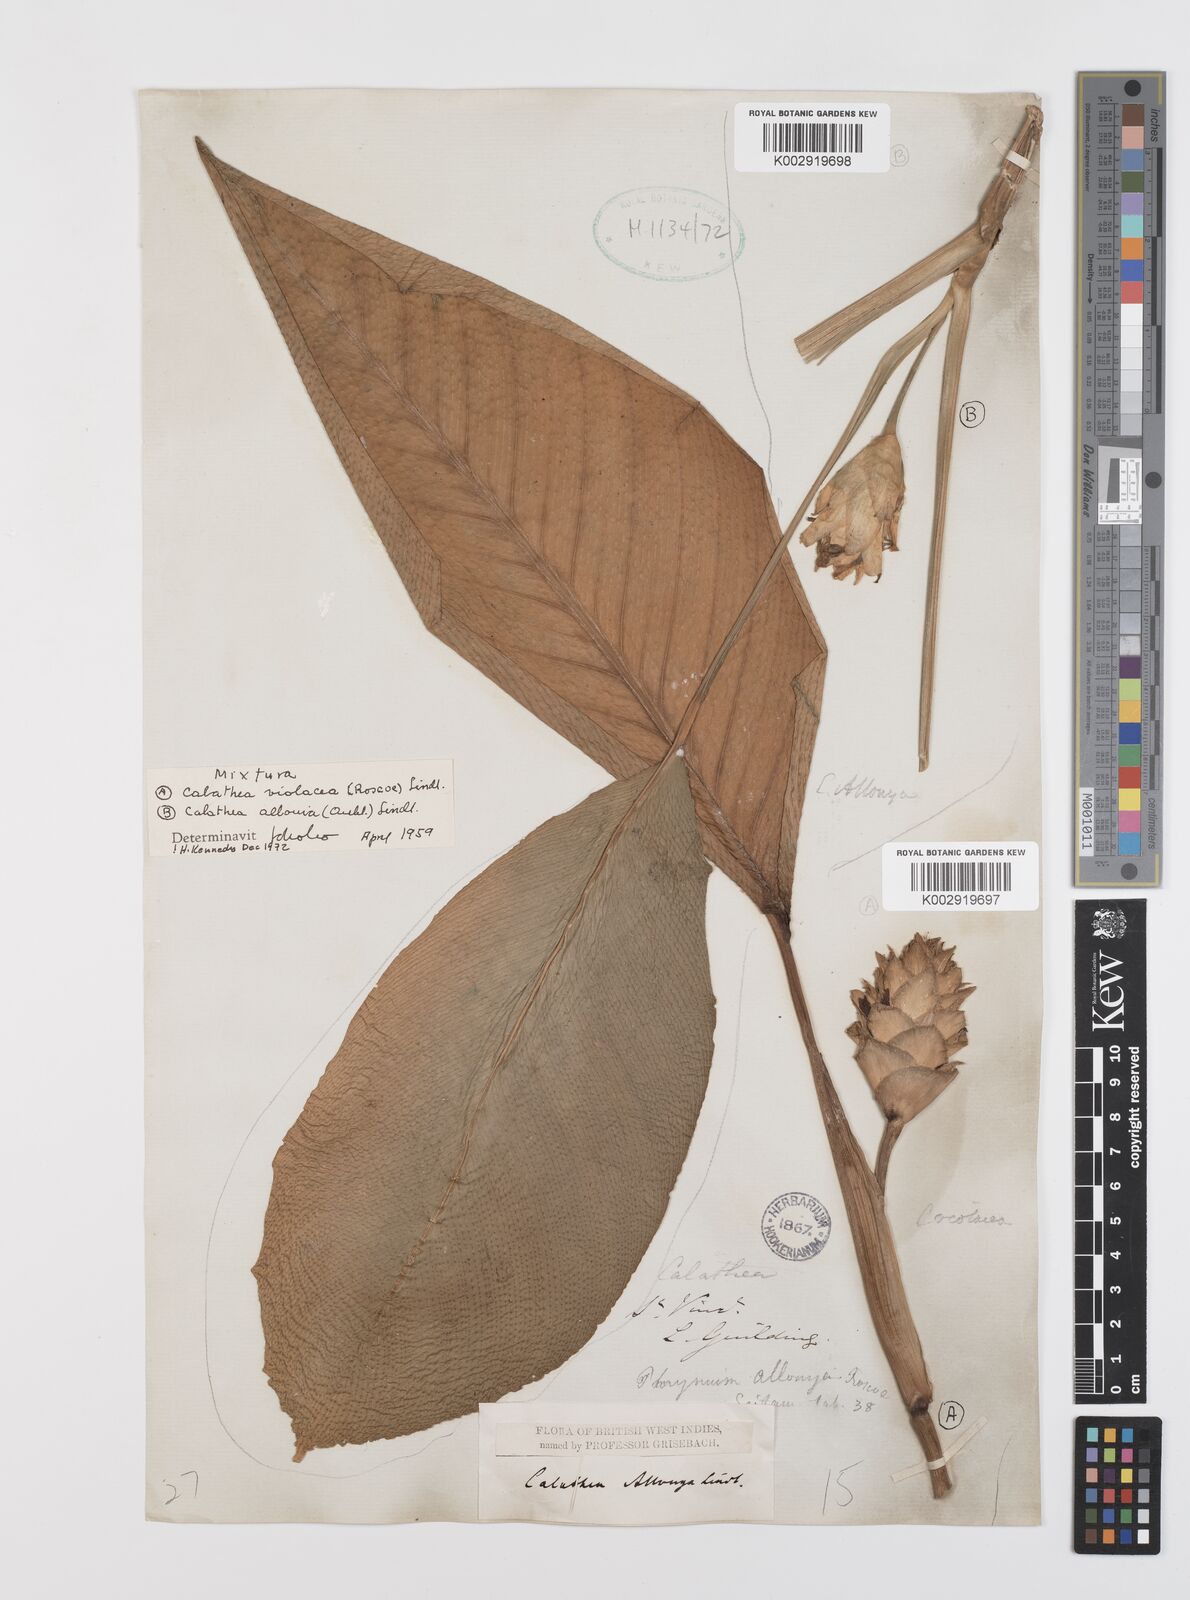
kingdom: Plantae
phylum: Tracheophyta
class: Liliopsida
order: Zingiberales
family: Marantaceae
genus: Goeppertia
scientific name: Goeppertia allouia
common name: Sweet corn-tuber
